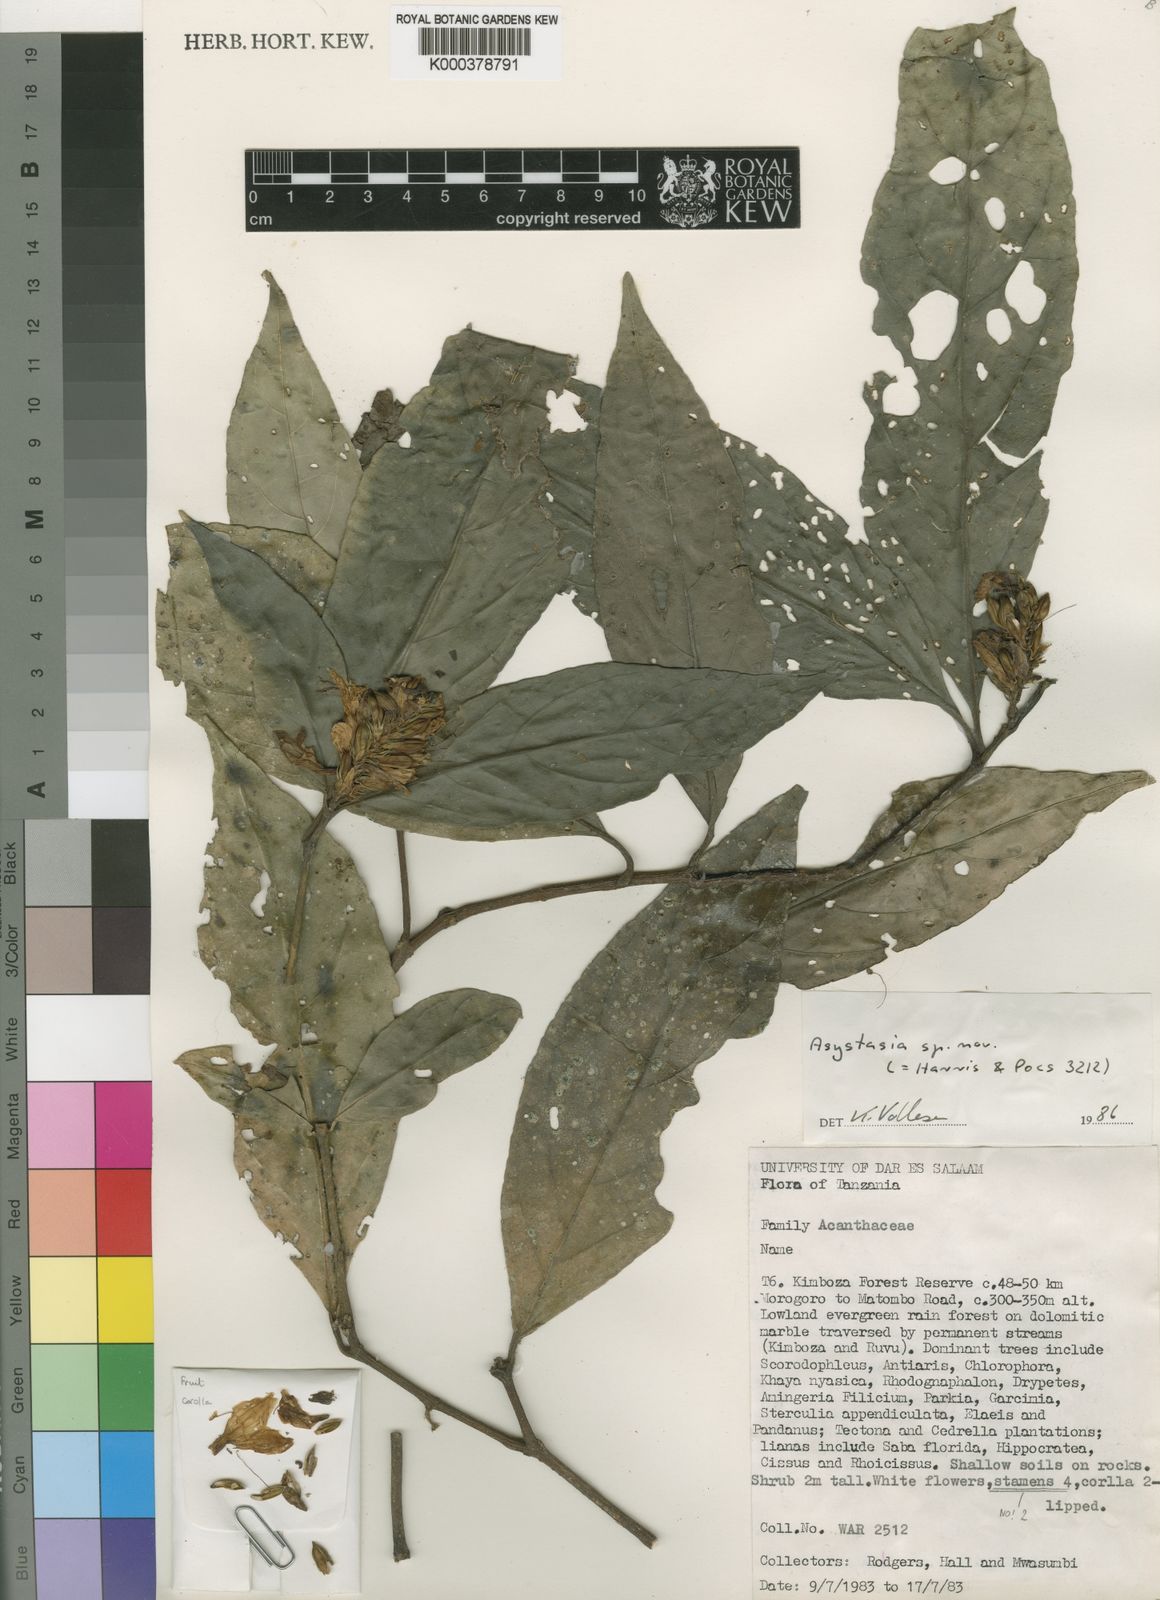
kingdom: Plantae
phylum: Tracheophyta
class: Magnoliopsida
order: Lamiales
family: Acanthaceae
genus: Isoglossa
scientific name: Isoglossa asystasioides
